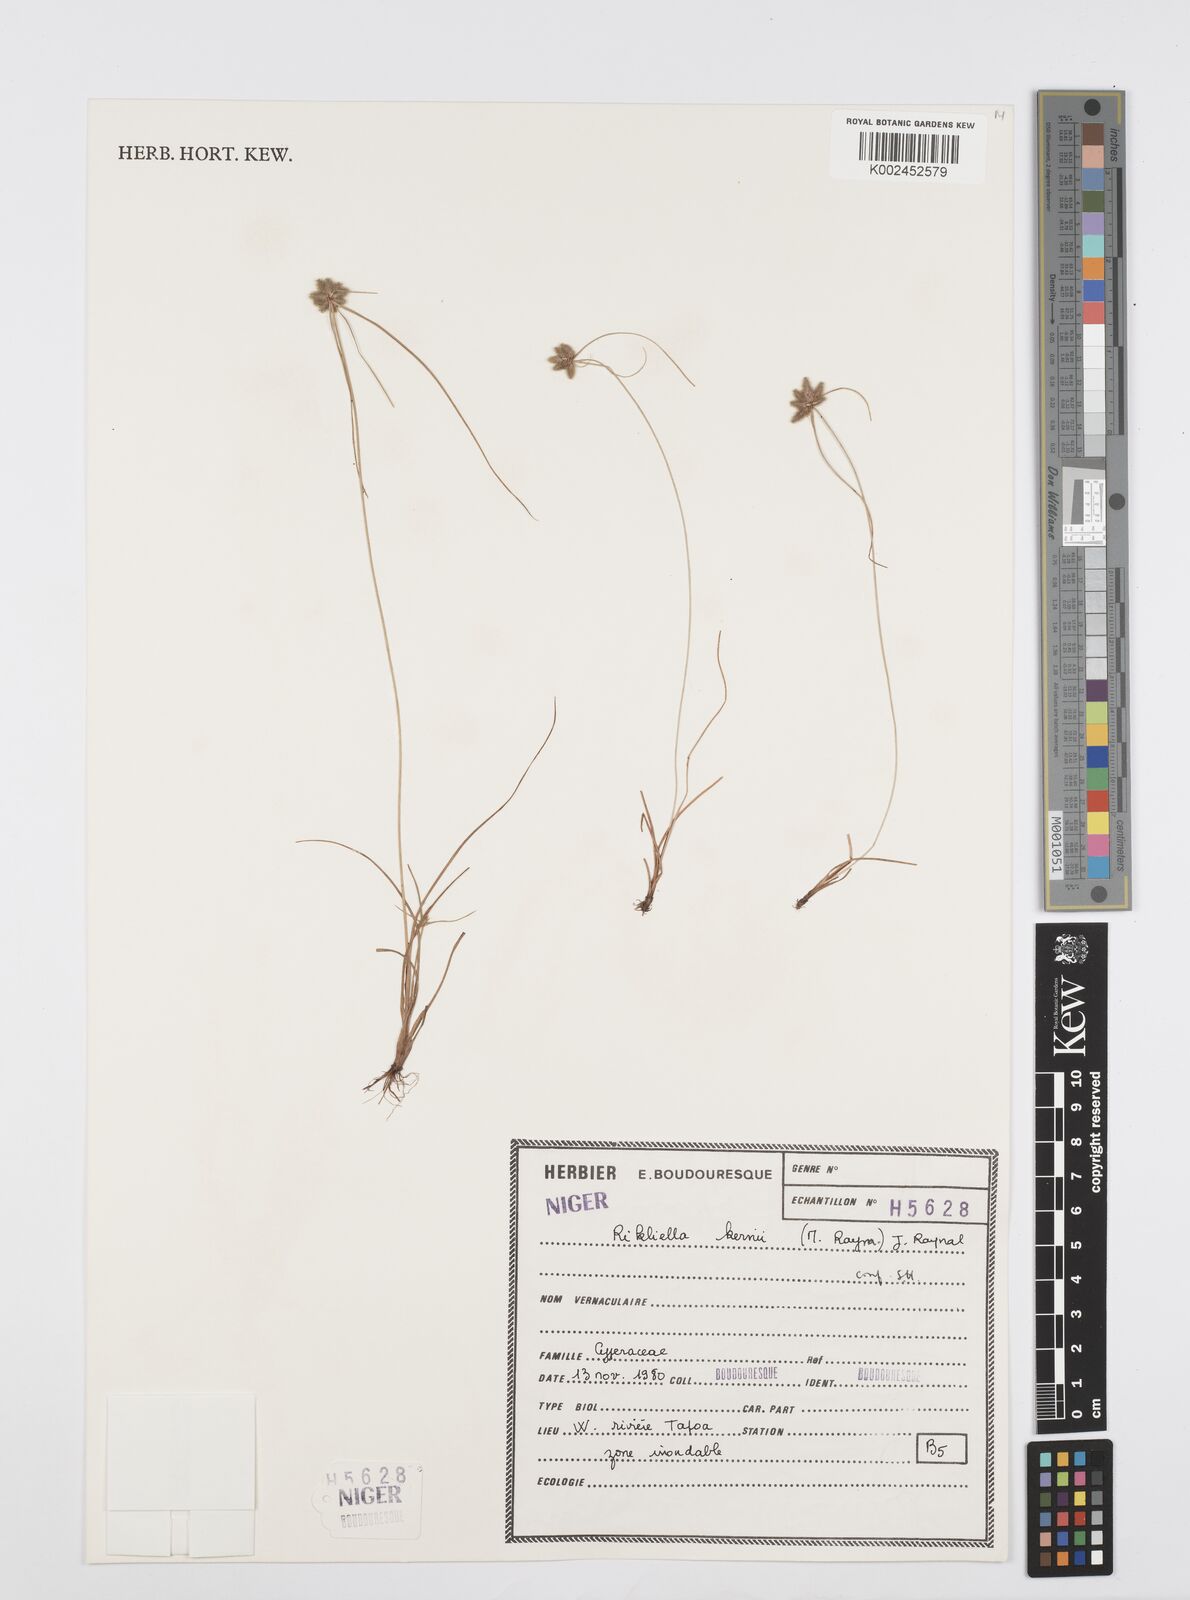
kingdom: Plantae
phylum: Tracheophyta
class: Liliopsida
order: Poales
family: Cyperaceae
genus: Cyperus
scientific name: Cyperus kernii
